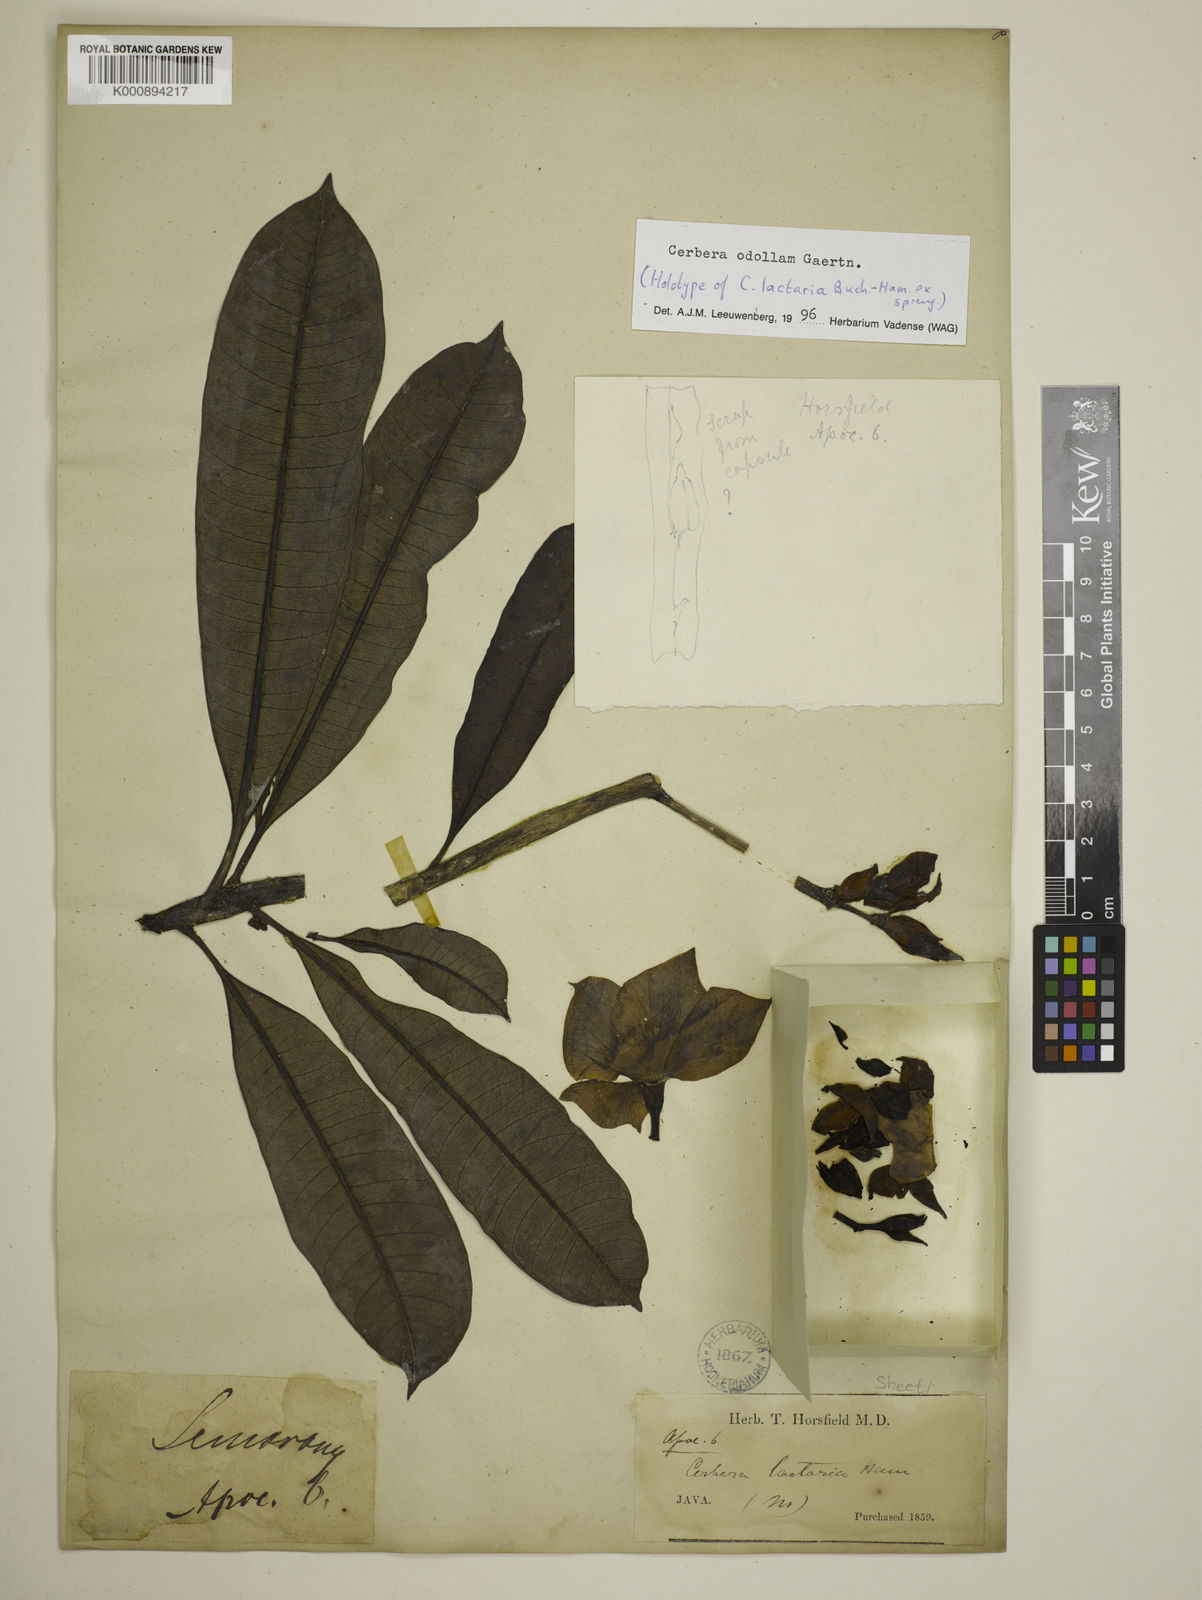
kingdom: Plantae
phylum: Tracheophyta
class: Magnoliopsida
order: Gentianales
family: Apocynaceae
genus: Cerbera
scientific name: Cerbera odollam
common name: Pong-pong
